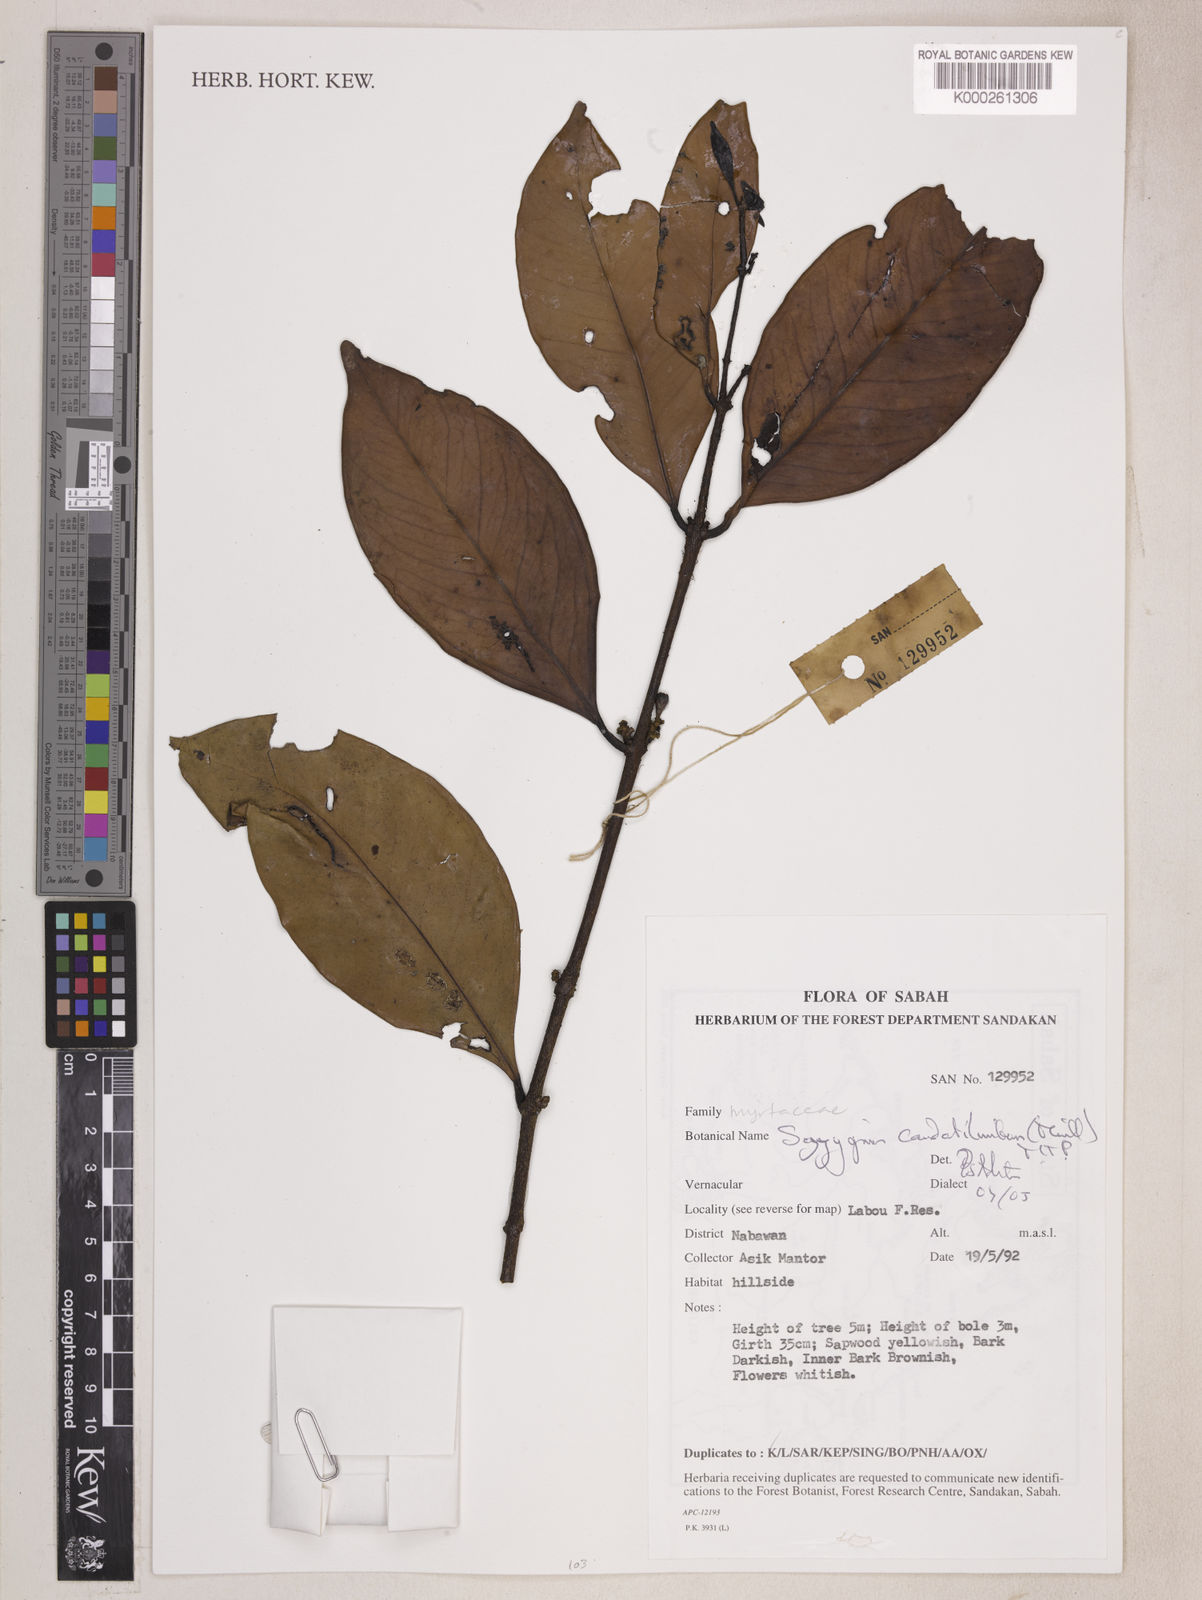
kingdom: Plantae
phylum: Tracheophyta
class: Magnoliopsida
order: Myrtales
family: Myrtaceae
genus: Syzygium
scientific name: Syzygium
